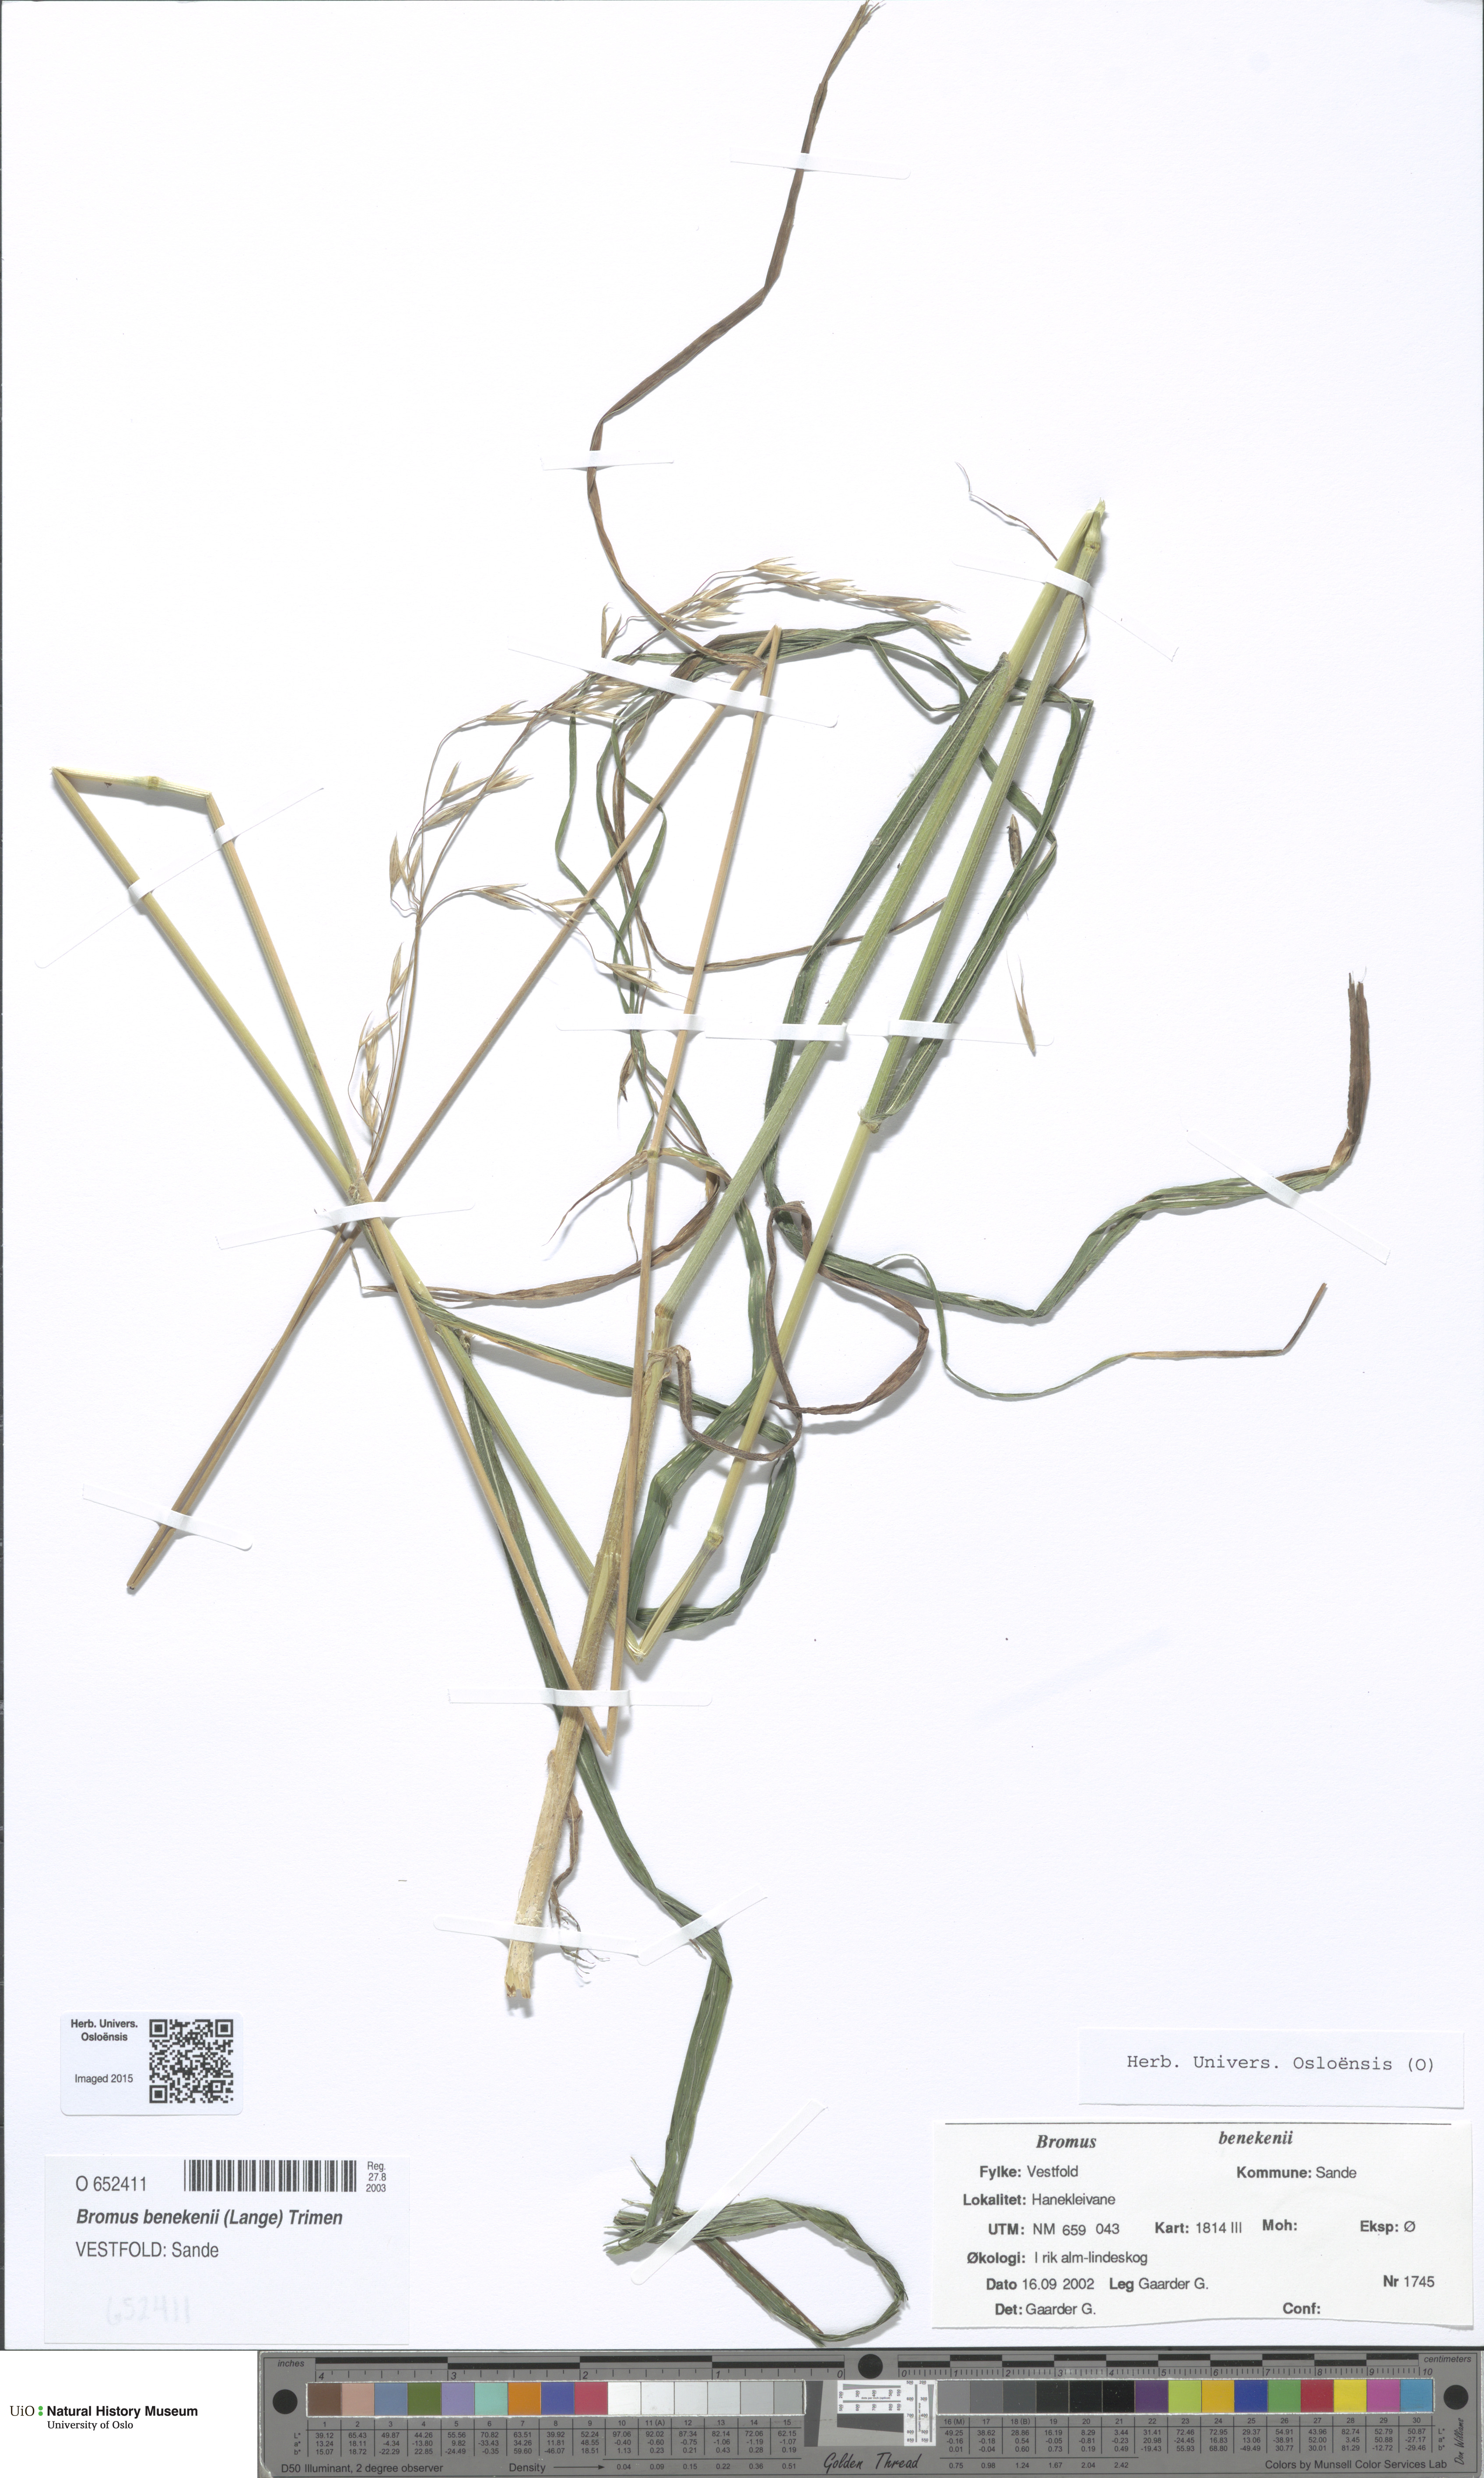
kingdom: Plantae
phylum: Tracheophyta
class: Liliopsida
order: Poales
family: Poaceae
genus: Bromus
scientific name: Bromus benekenii
